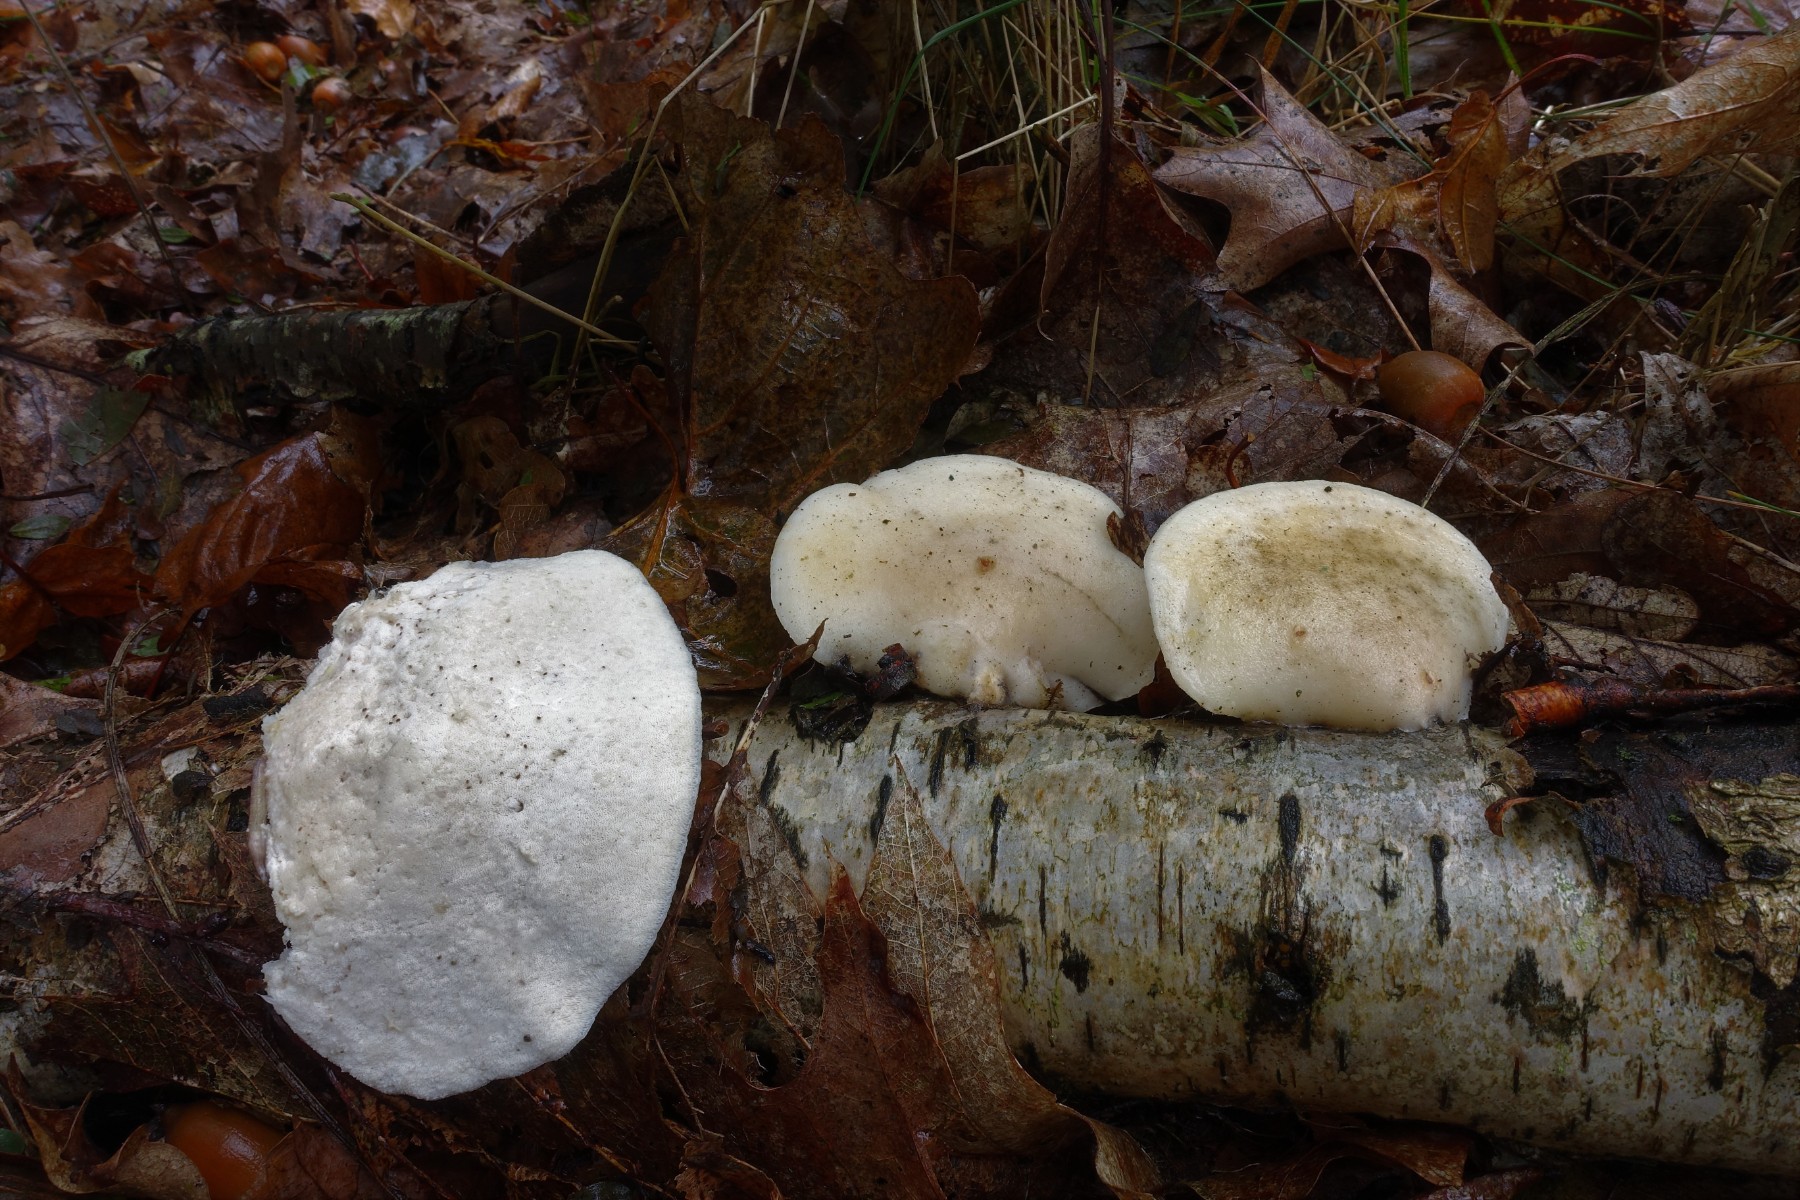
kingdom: Fungi
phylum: Basidiomycota
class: Agaricomycetes
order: Polyporales
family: Incrustoporiaceae
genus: Tyromyces
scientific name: Tyromyces lacteus
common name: mælkehvid kødporesvamp
